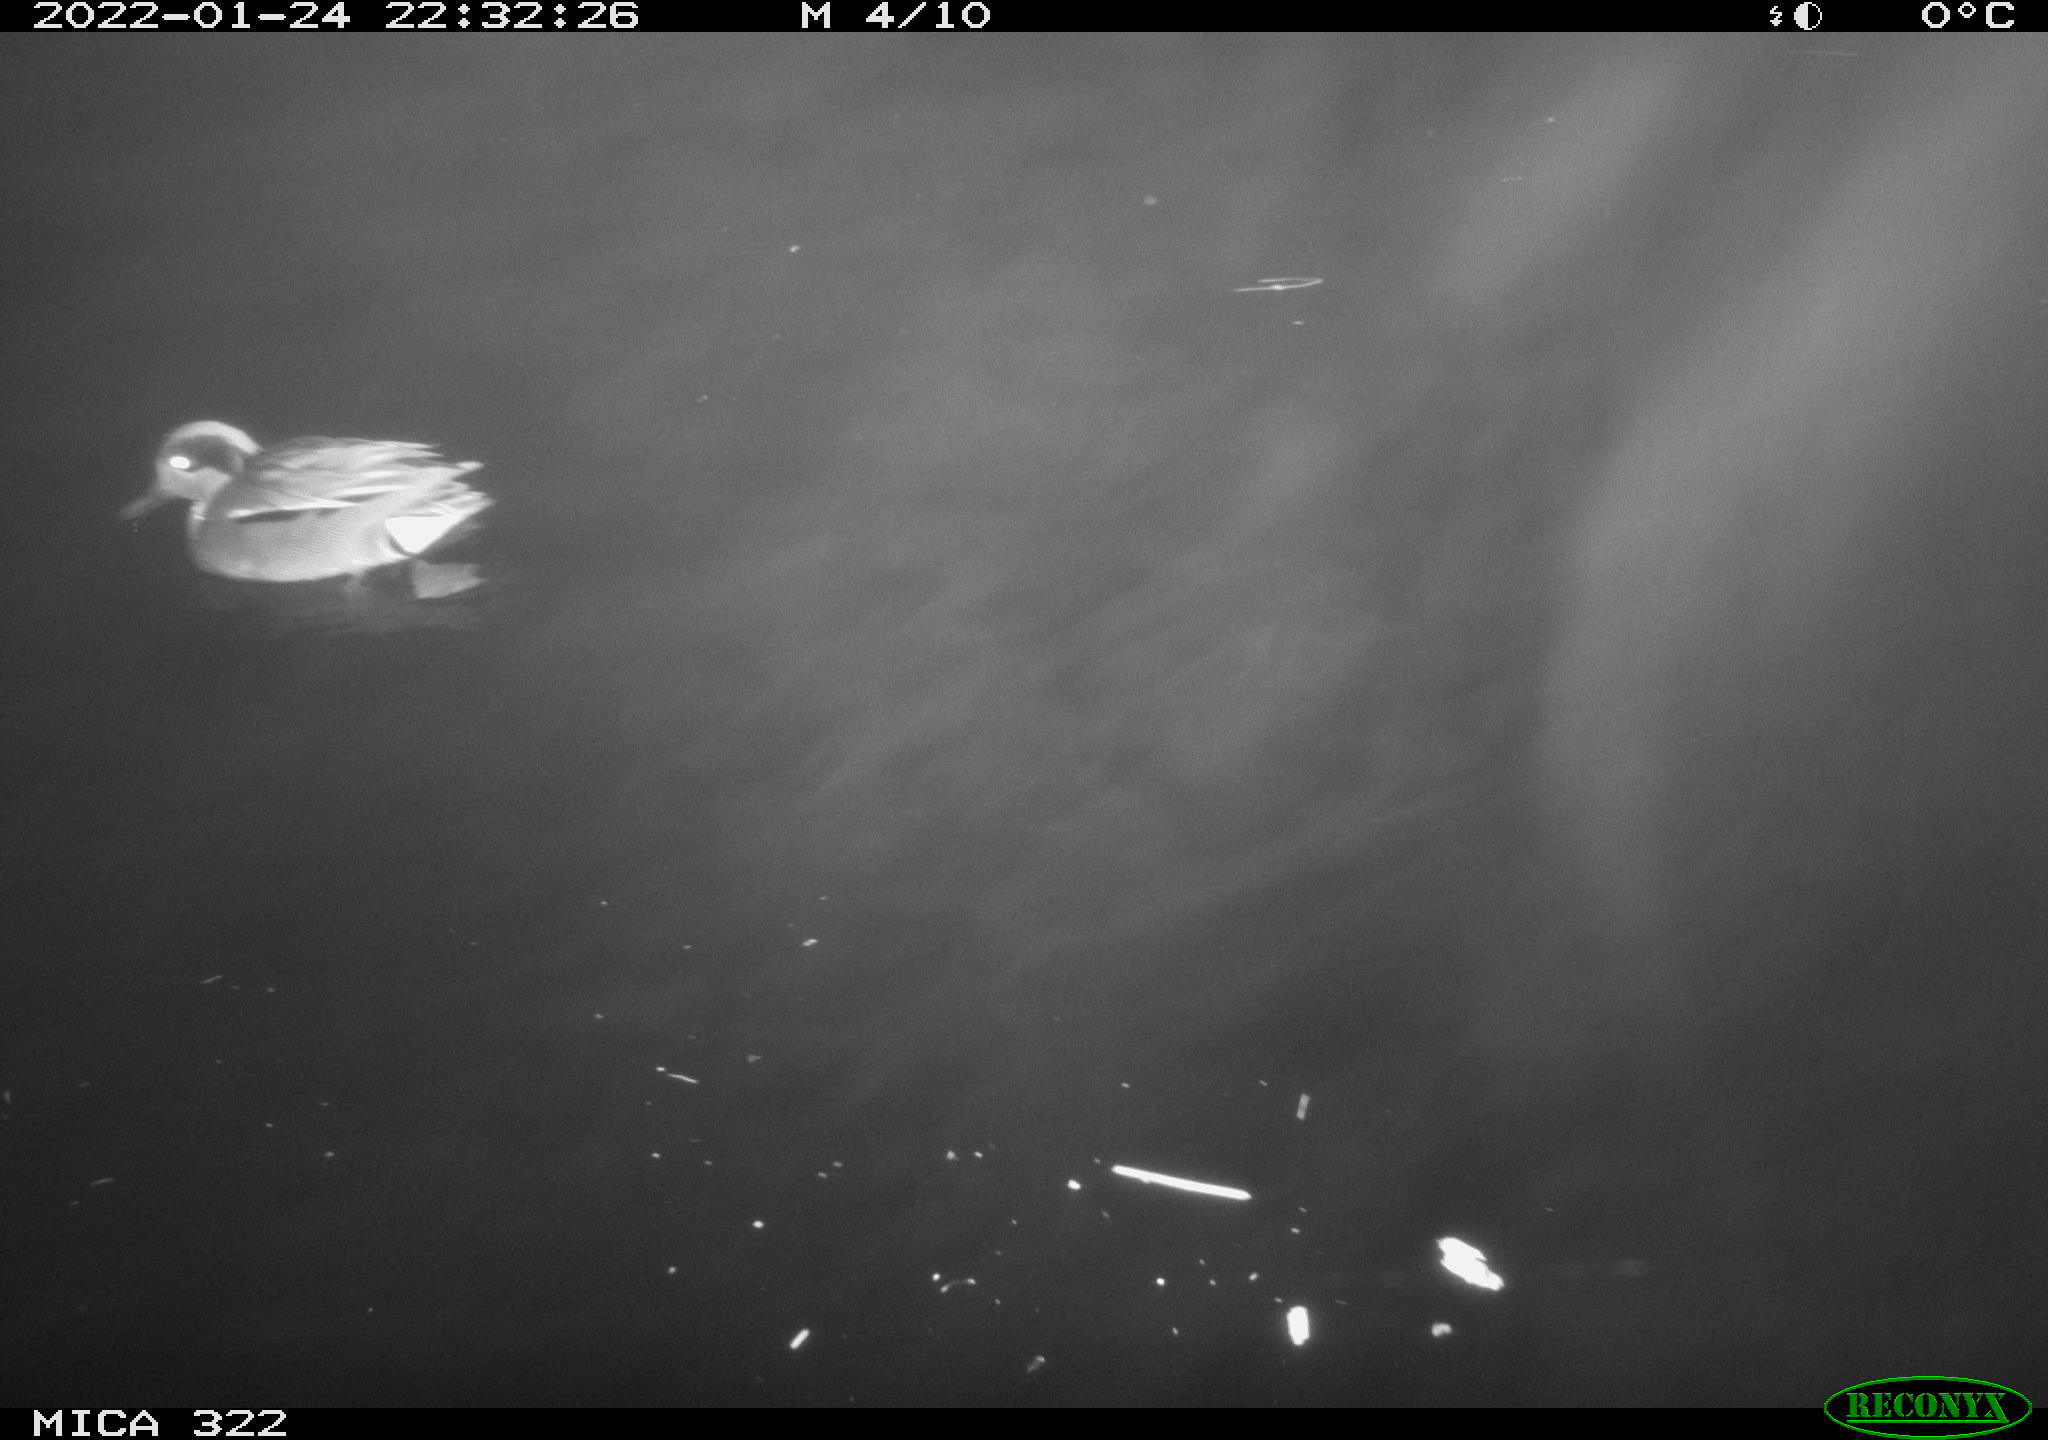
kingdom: Animalia
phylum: Chordata
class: Aves
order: Anseriformes
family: Anatidae
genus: Anas
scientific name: Anas
